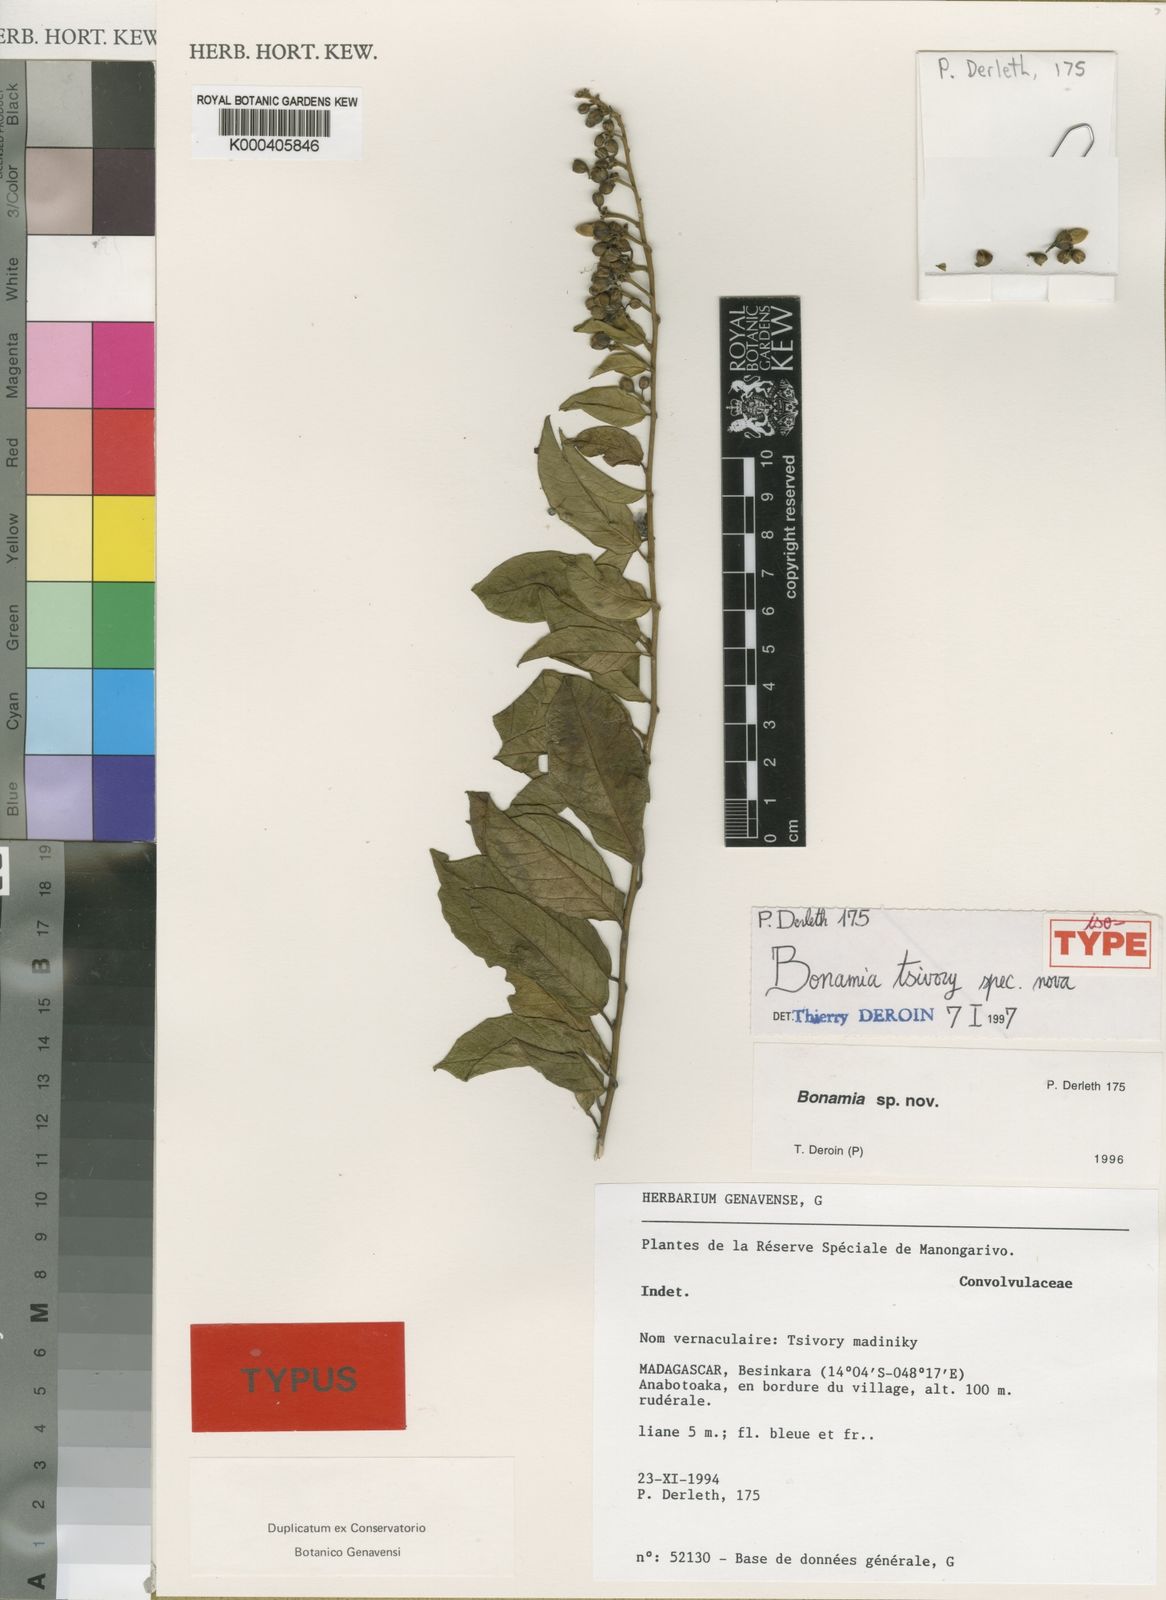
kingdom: Plantae
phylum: Tracheophyta
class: Magnoliopsida
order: Solanales
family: Convolvulaceae
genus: Bonamia
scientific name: Bonamia tsivory
